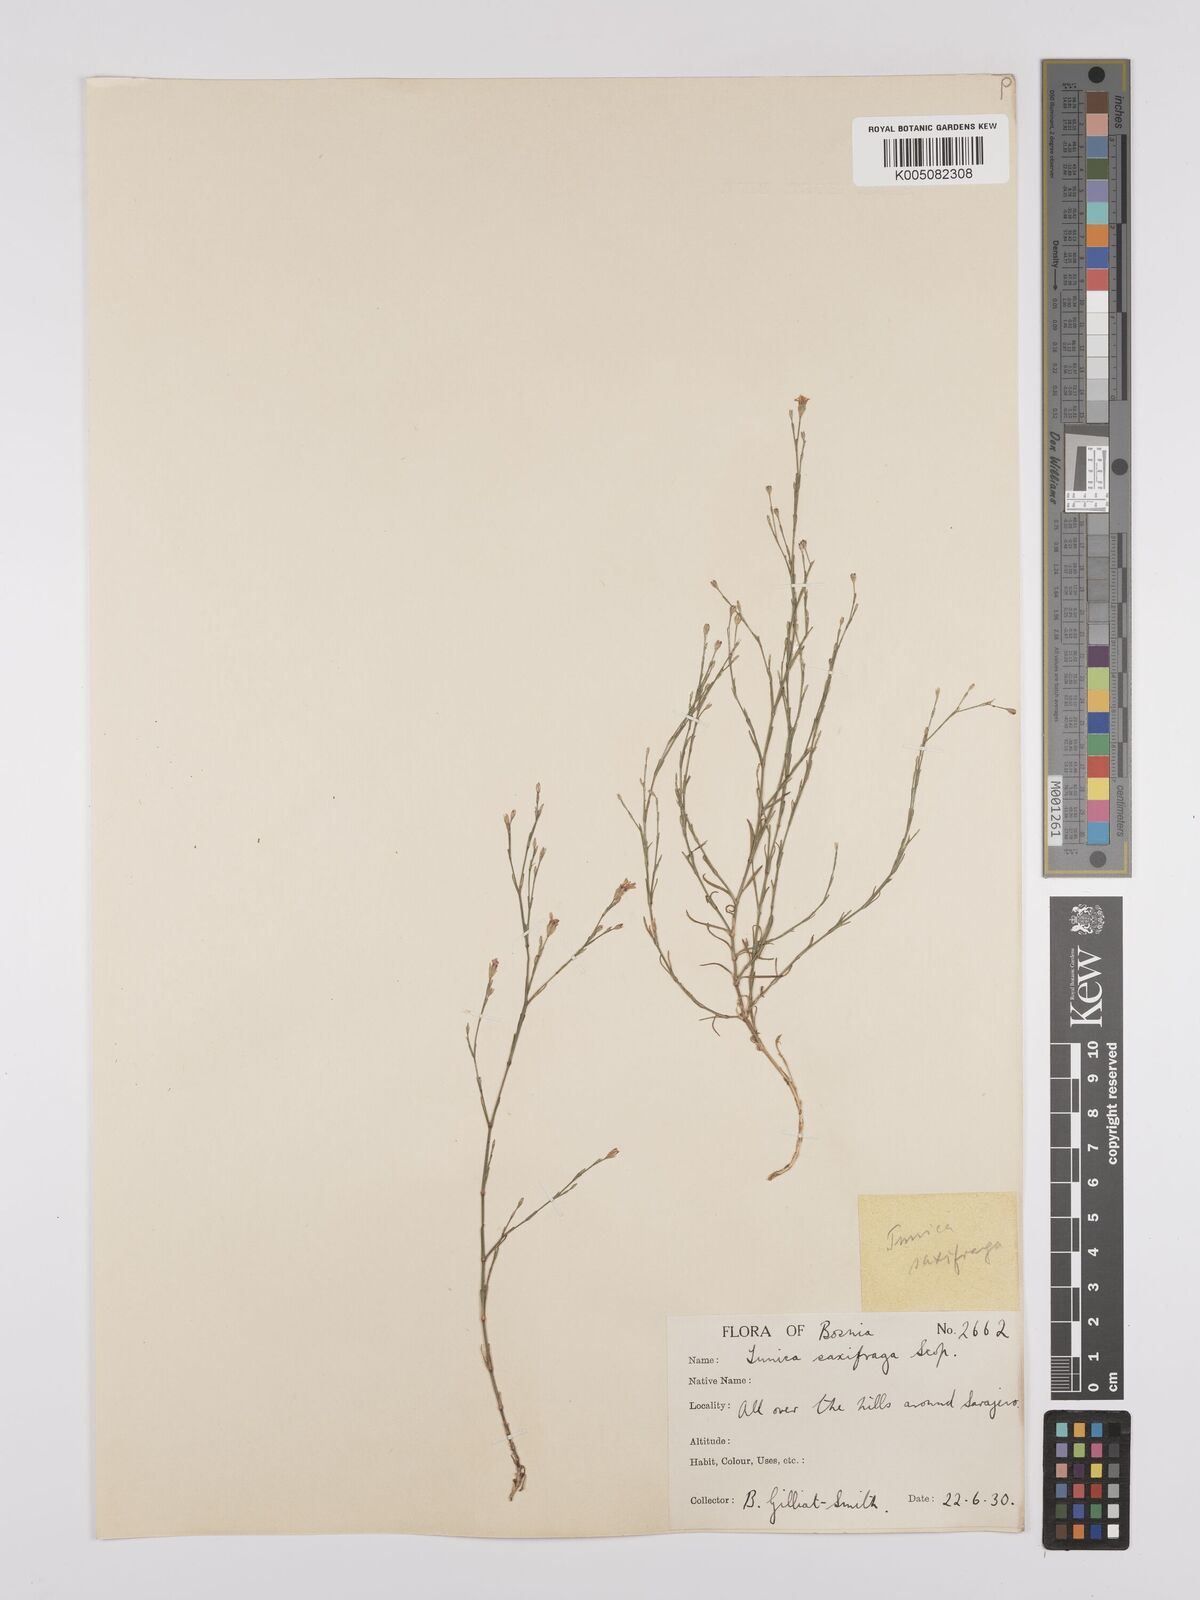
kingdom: Plantae
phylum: Tracheophyta
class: Magnoliopsida
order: Caryophyllales
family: Caryophyllaceae
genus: Petrorhagia
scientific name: Petrorhagia saxifraga
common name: Tunicflower
